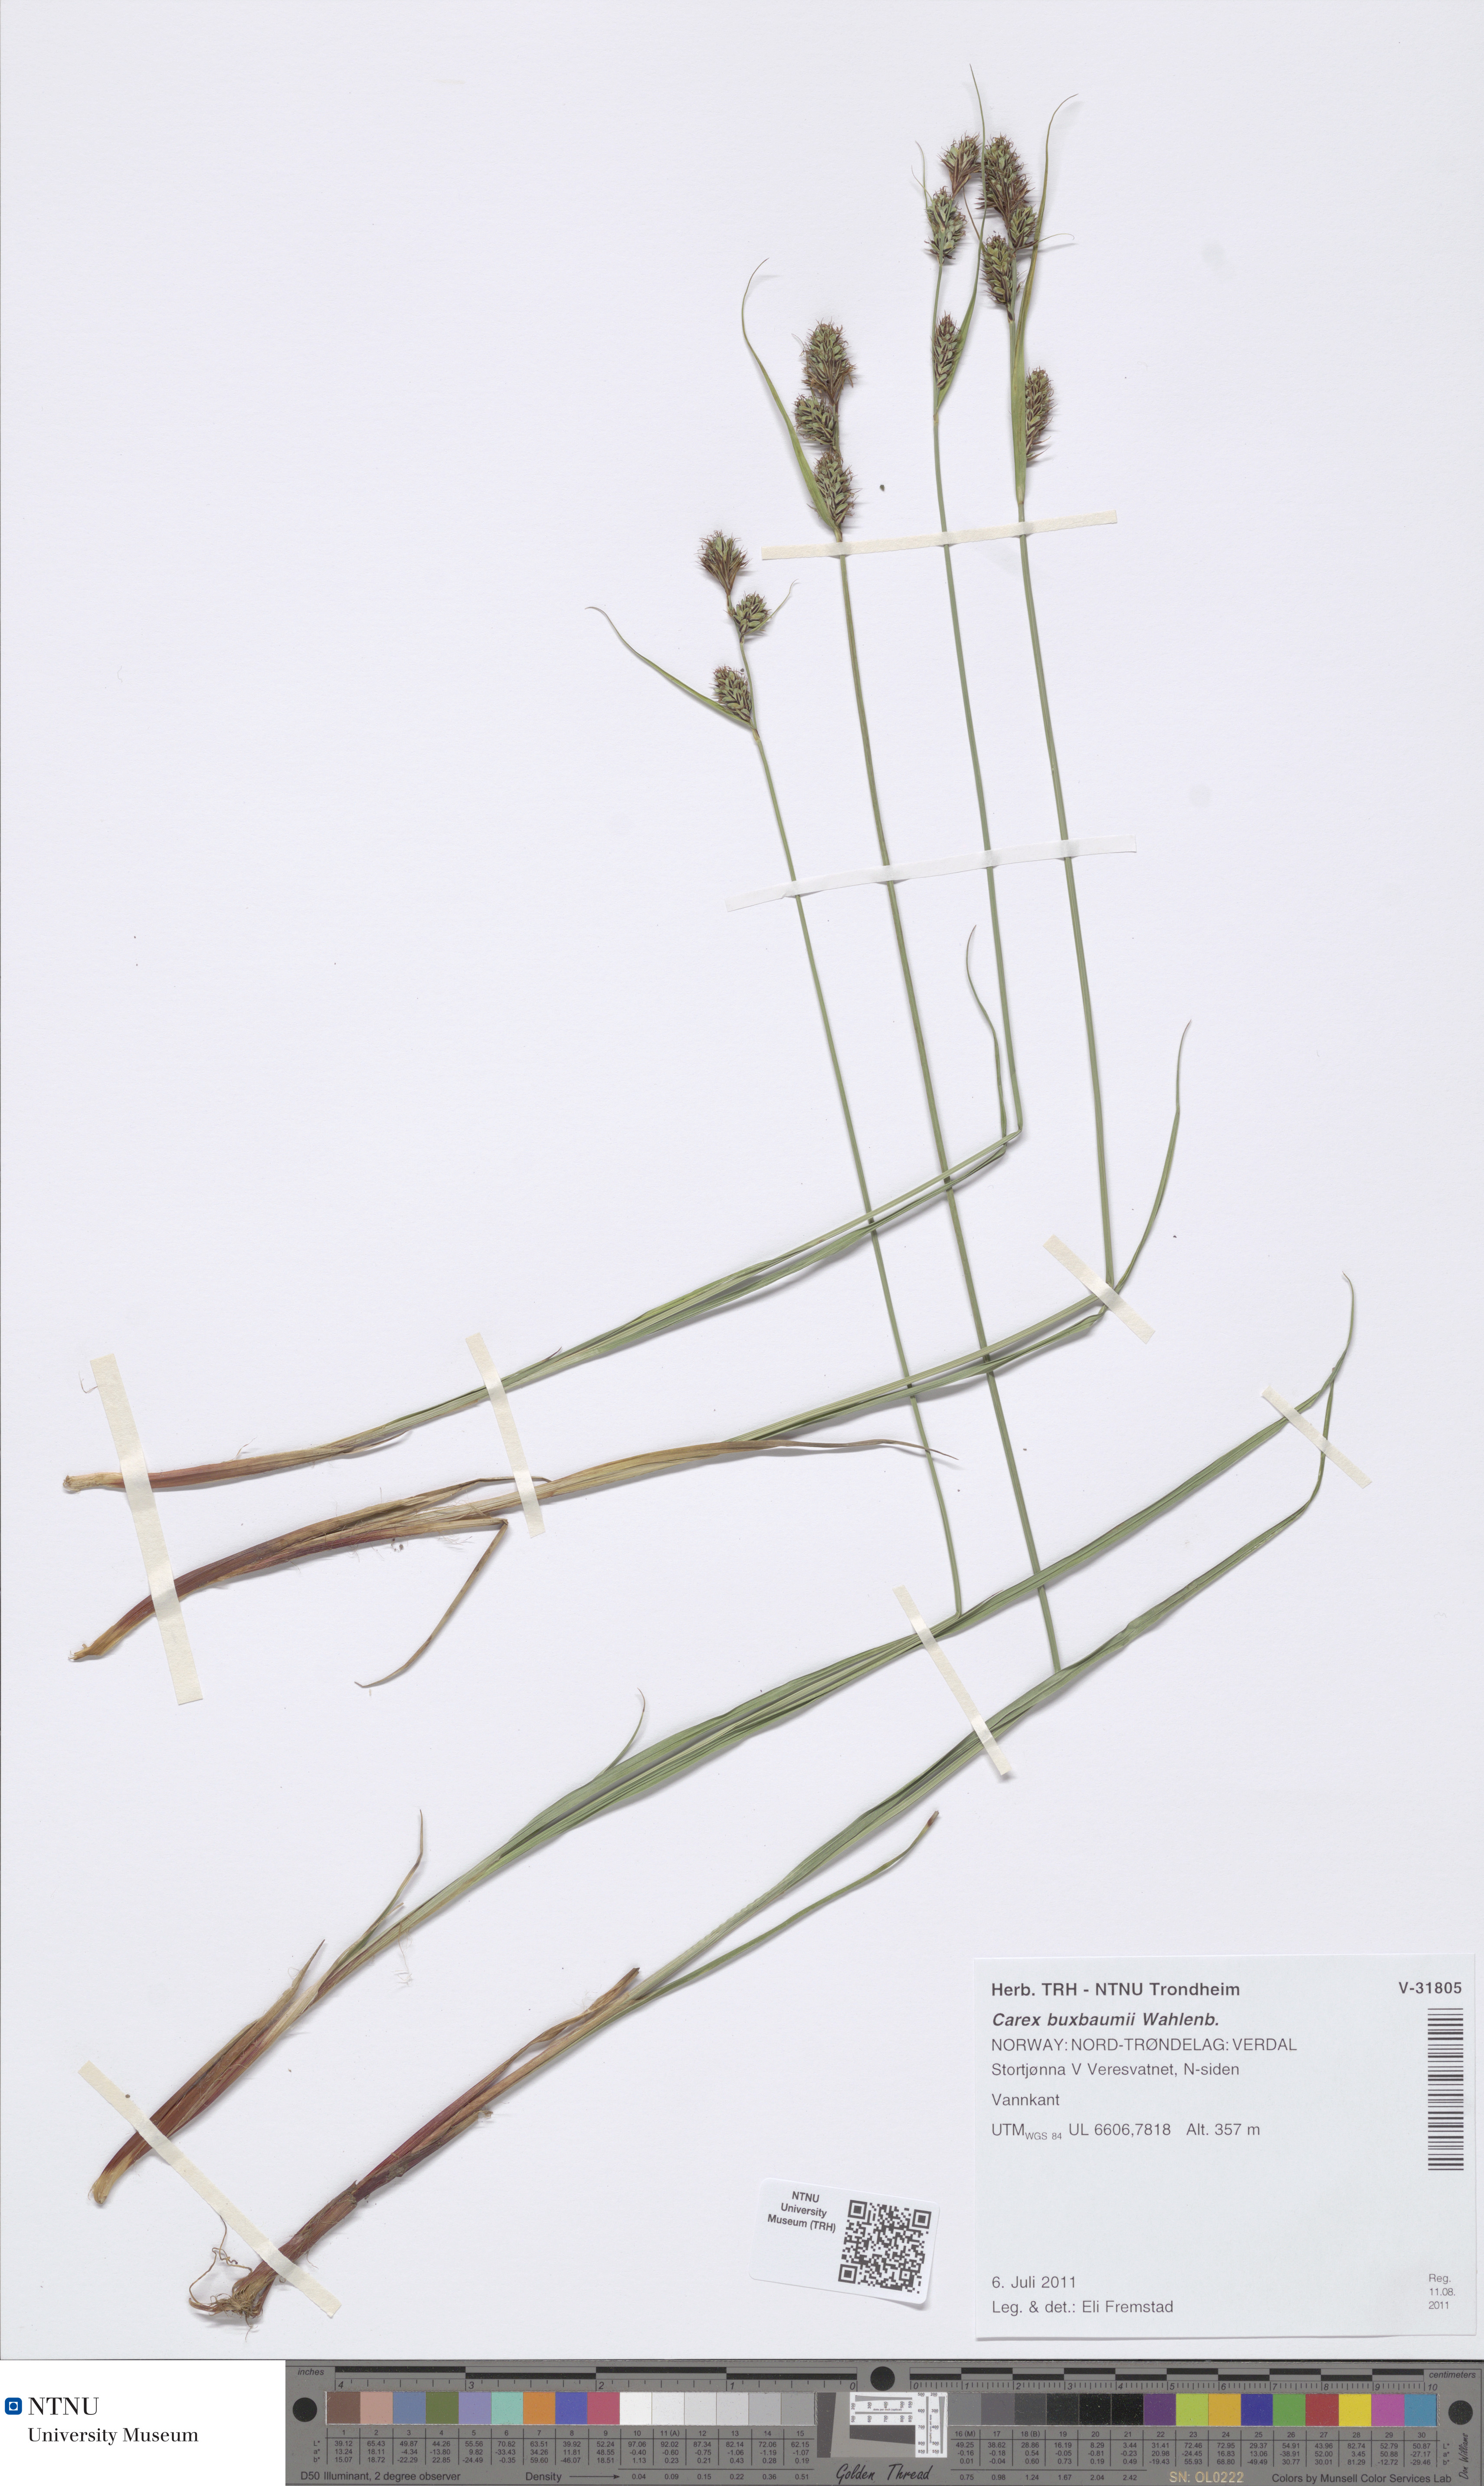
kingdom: Plantae
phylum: Tracheophyta
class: Liliopsida
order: Poales
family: Cyperaceae
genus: Carex
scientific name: Carex buxbaumii
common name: Club sedge
